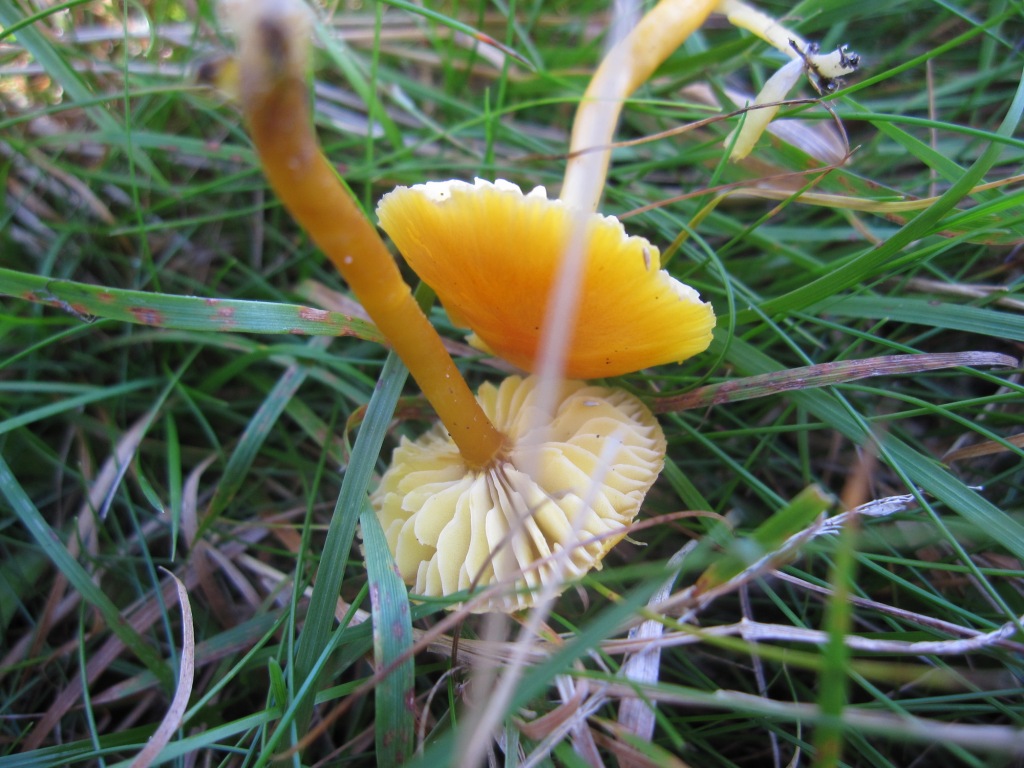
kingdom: Fungi
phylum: Basidiomycota
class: Agaricomycetes
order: Agaricales
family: Hygrophoraceae
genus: Hygrocybe
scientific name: Hygrocybe chlorophana
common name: gul vokshat
